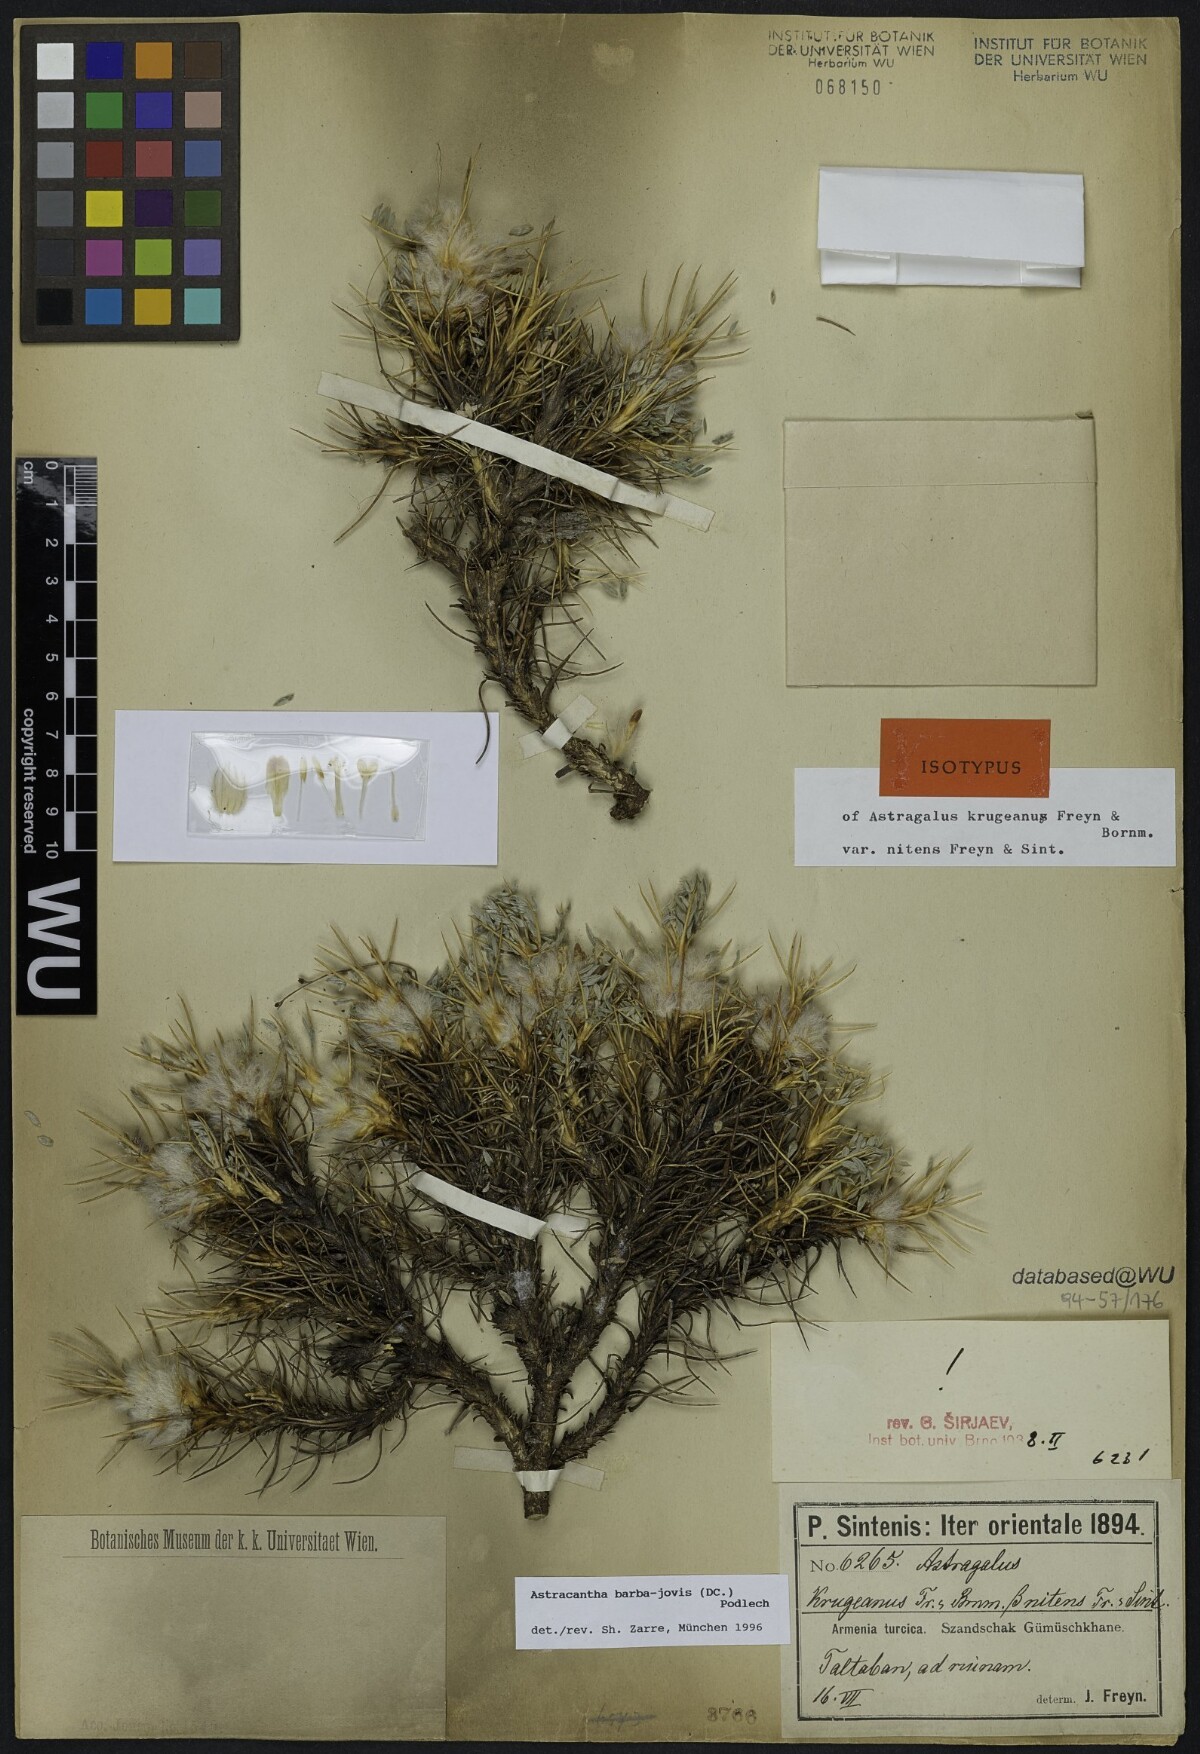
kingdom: Plantae
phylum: Tracheophyta
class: Magnoliopsida
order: Fabales
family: Fabaceae
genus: Astragalus
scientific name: Astragalus barba-jovis
